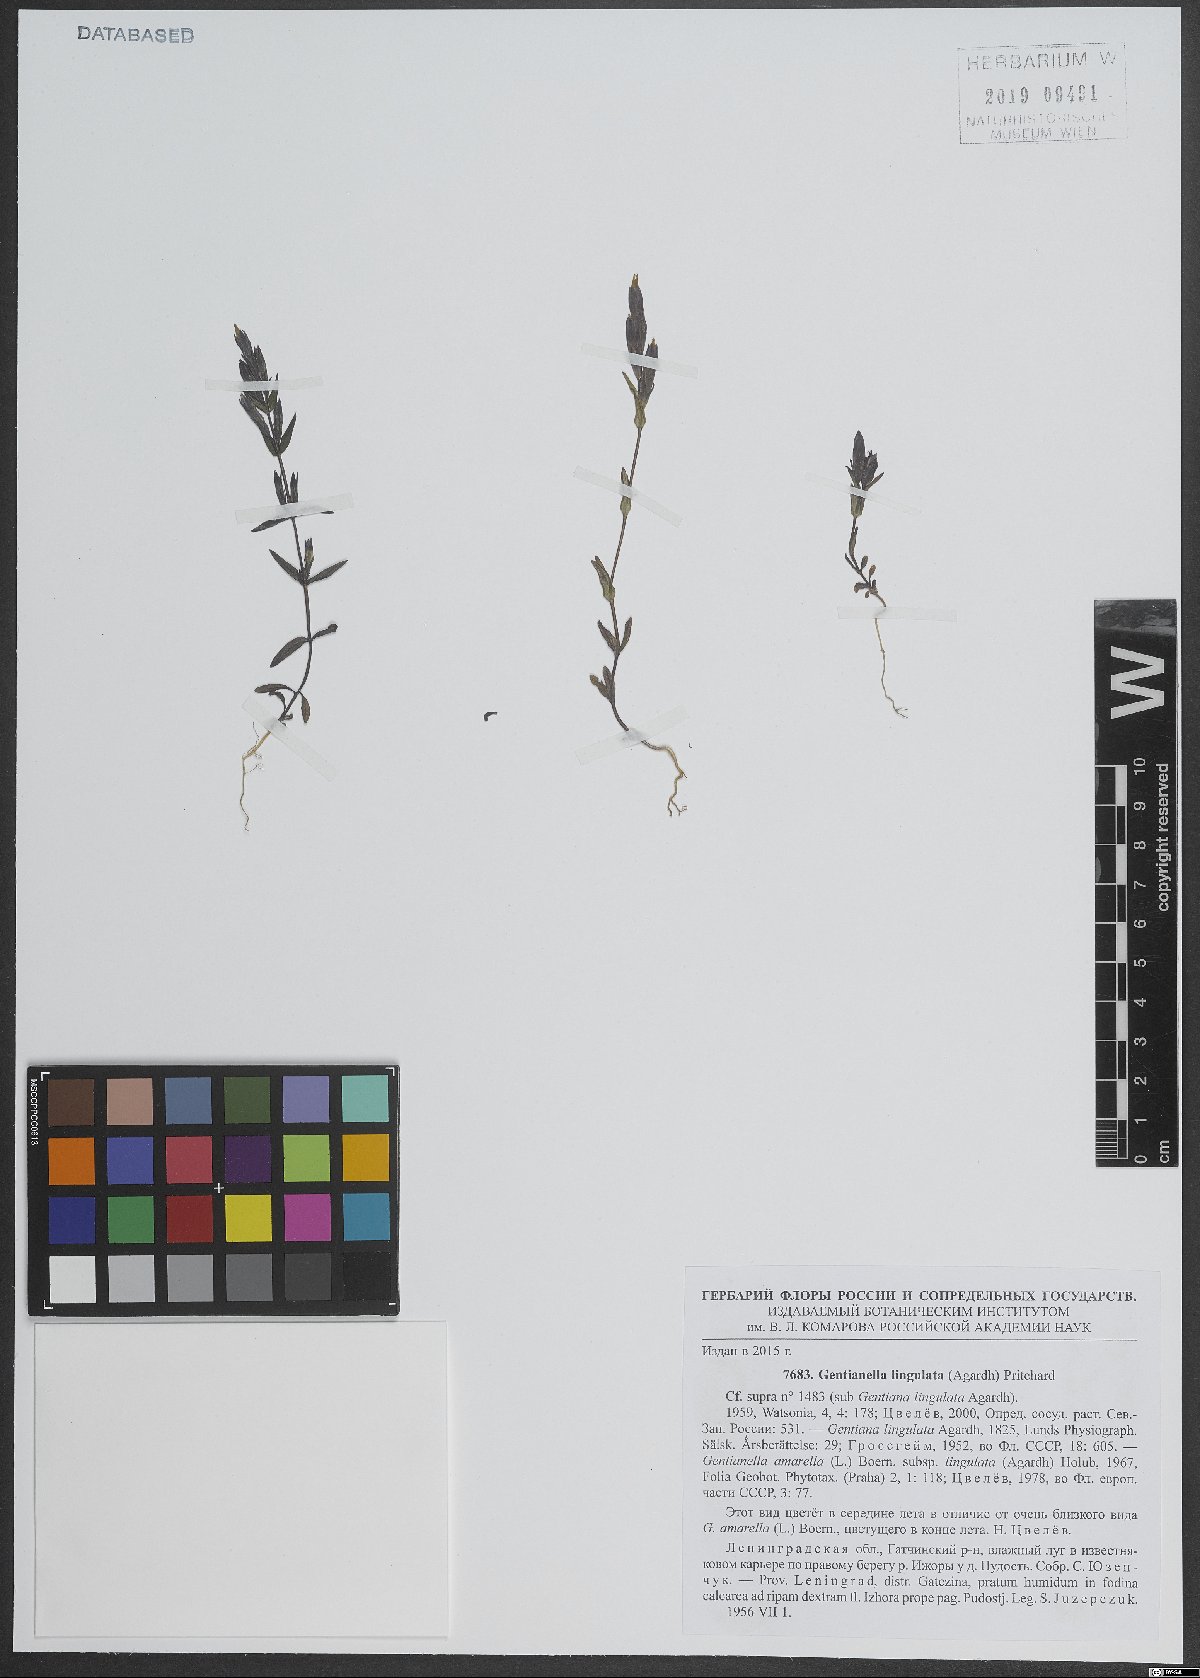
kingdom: Plantae
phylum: Tracheophyta
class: Magnoliopsida
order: Gentianales
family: Gentianaceae
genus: Gentianella
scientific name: Gentianella amarella
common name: Autumn gentian
